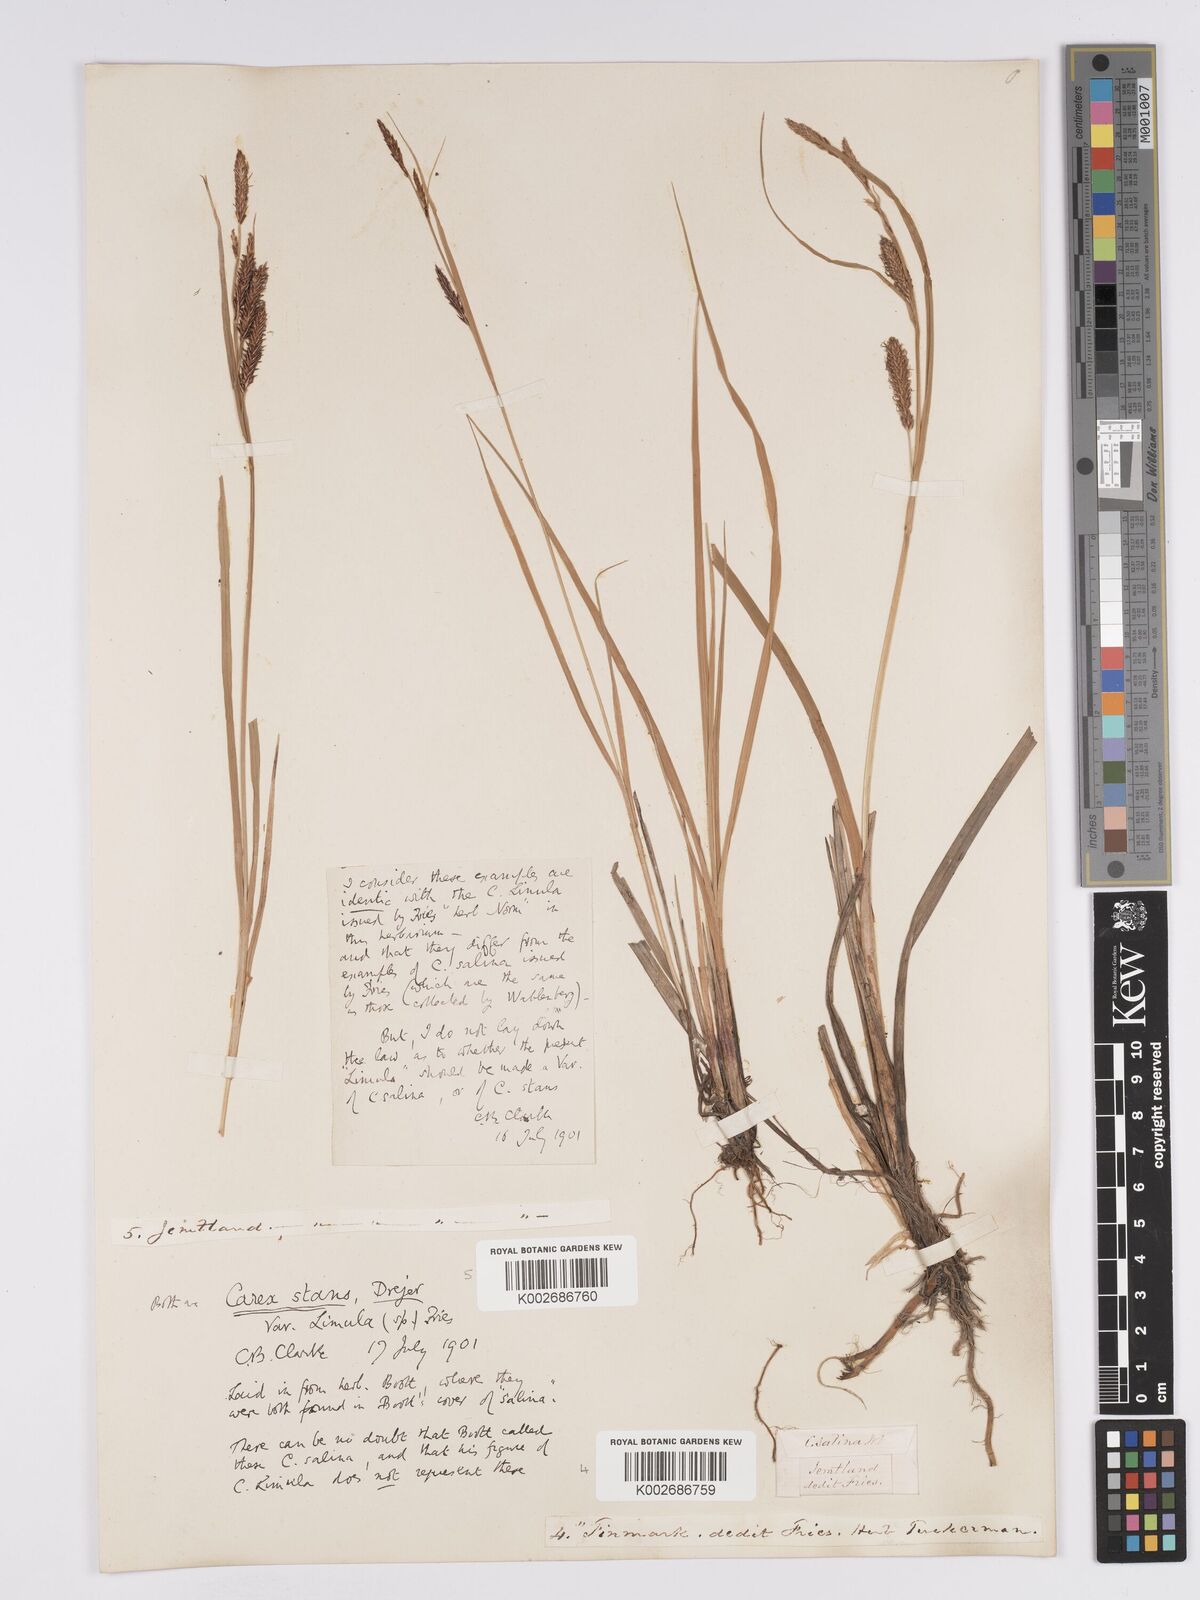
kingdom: Plantae
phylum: Tracheophyta
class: Liliopsida
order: Poales
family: Cyperaceae
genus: Carex
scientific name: Carex aquatilis
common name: Water sedge
